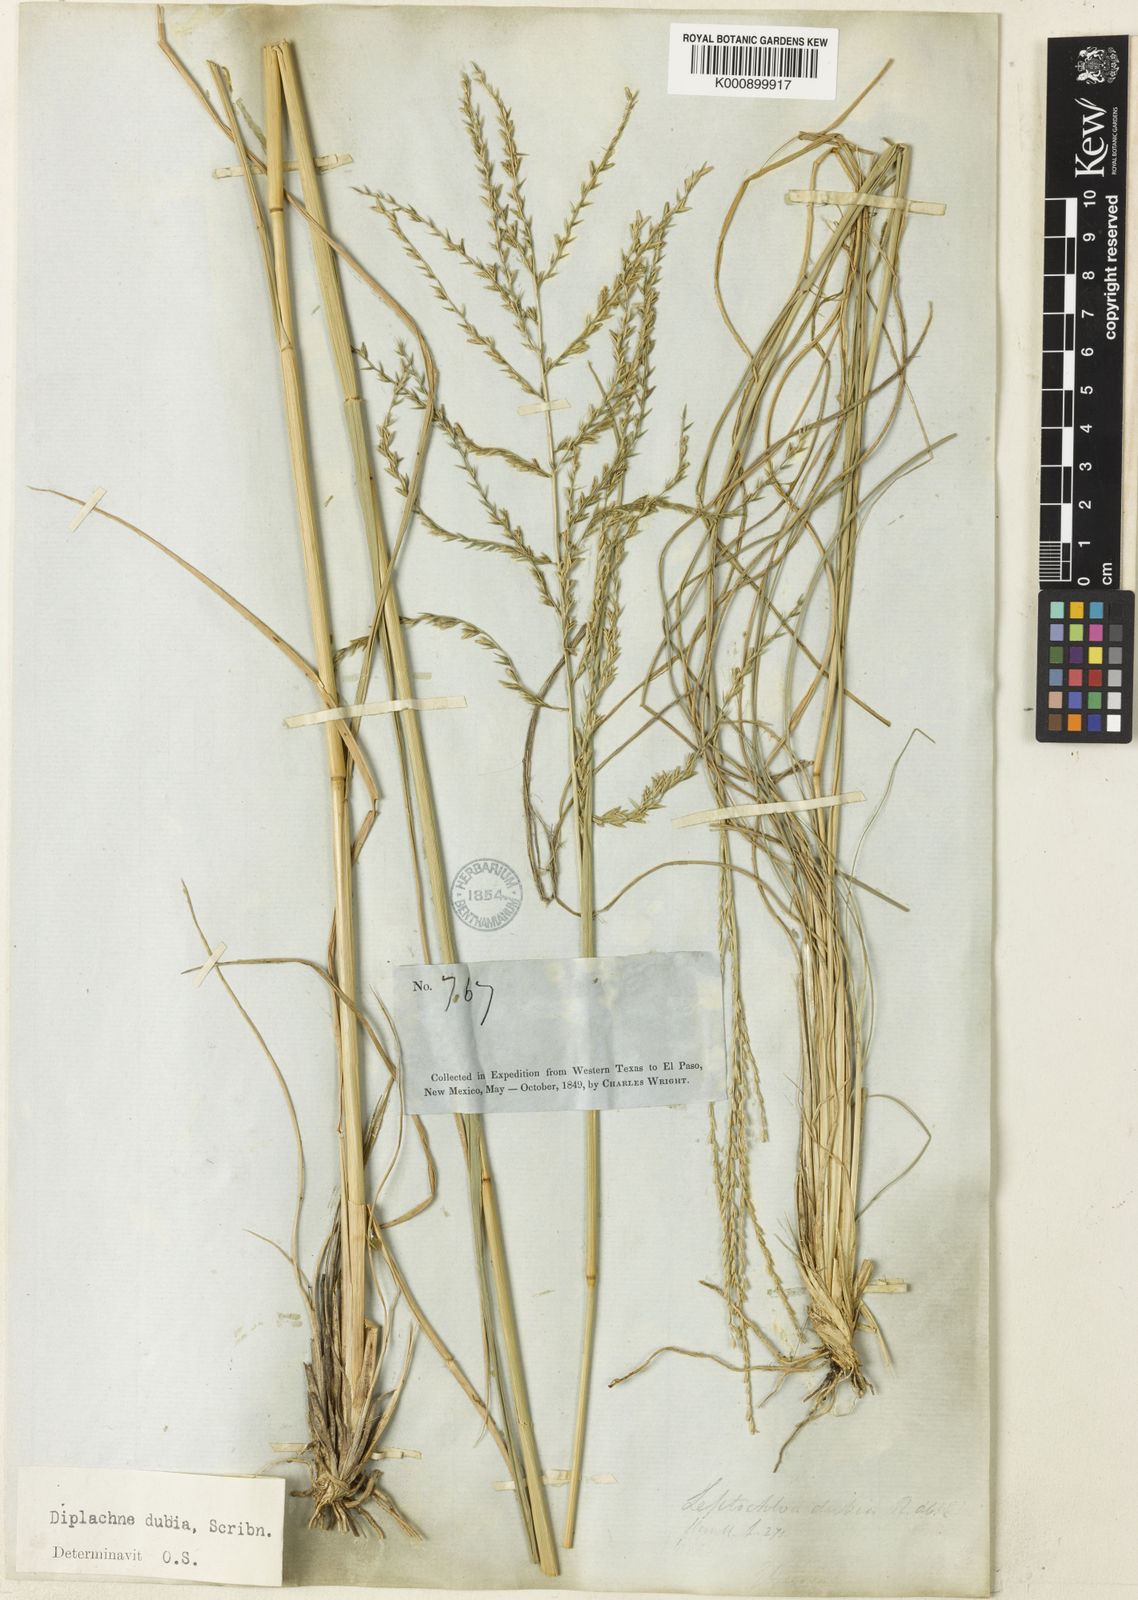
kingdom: Plantae
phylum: Tracheophyta
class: Liliopsida
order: Poales
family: Poaceae
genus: Disakisperma
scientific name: Disakisperma dubium
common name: Green sprangletop
